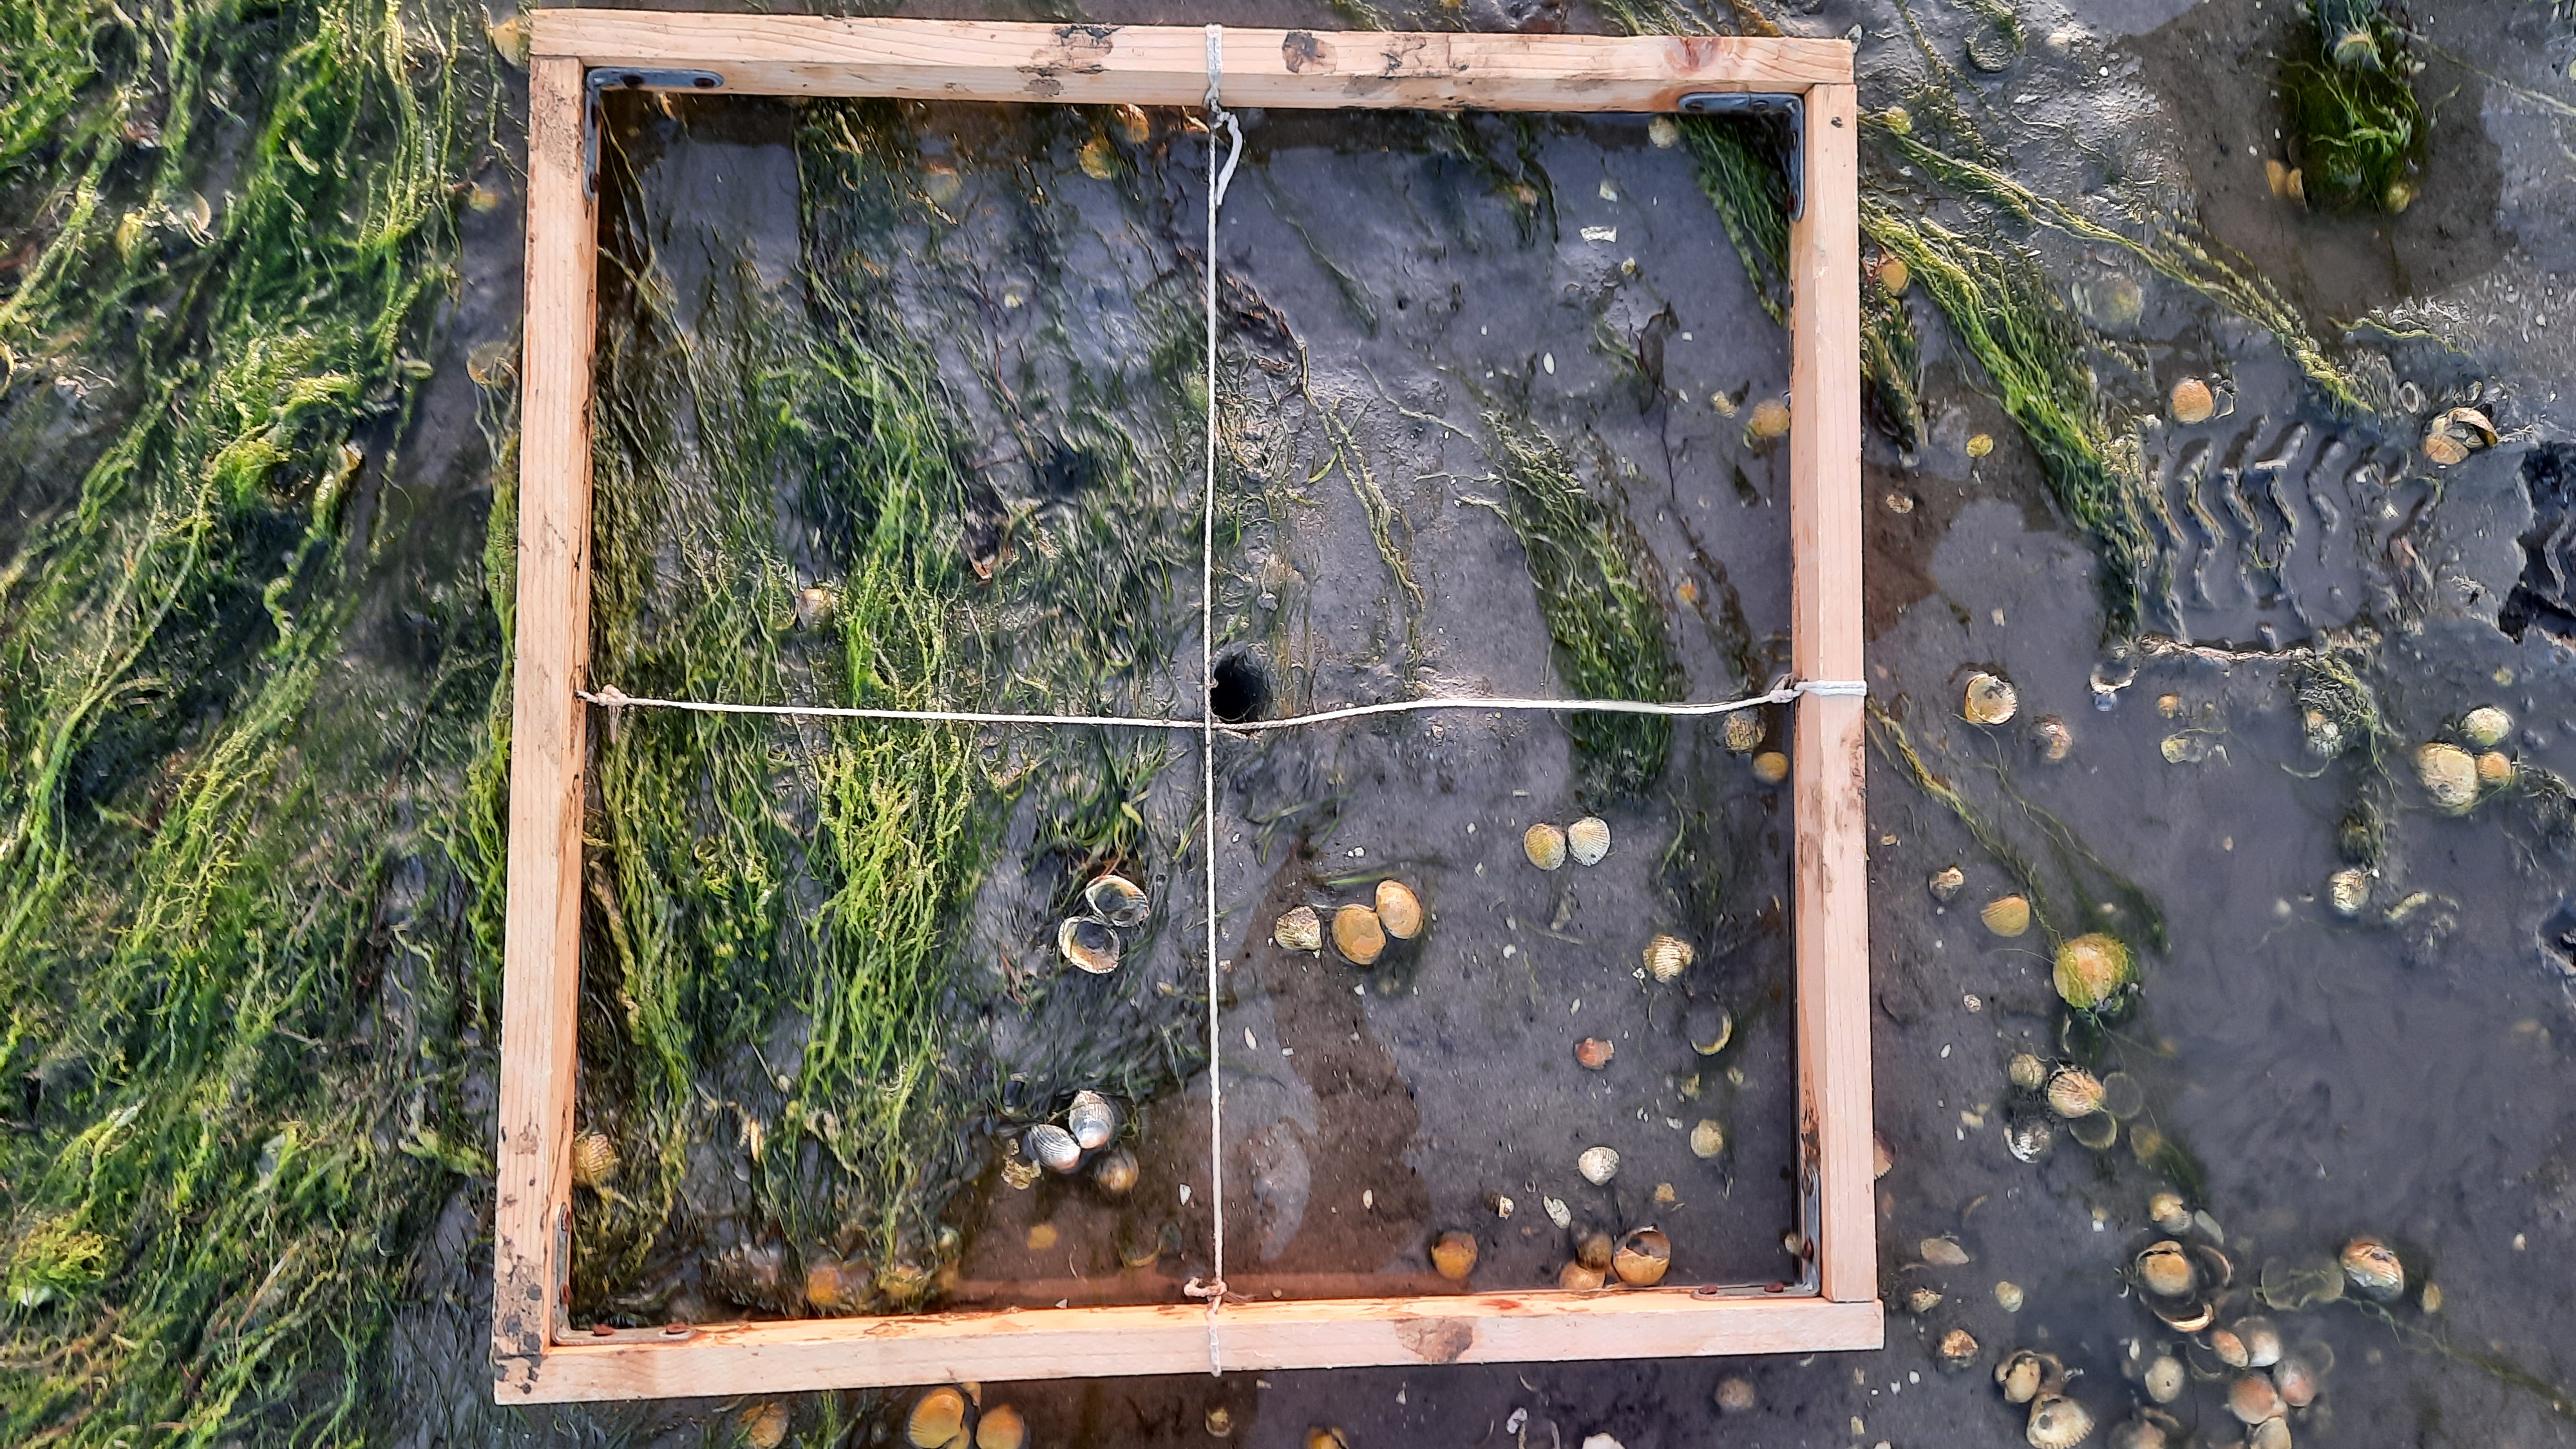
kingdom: Plantae
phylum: Chlorophyta
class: Ulvophyceae
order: Ulvales
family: Ulvaceae
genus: Ulva
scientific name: Ulva
